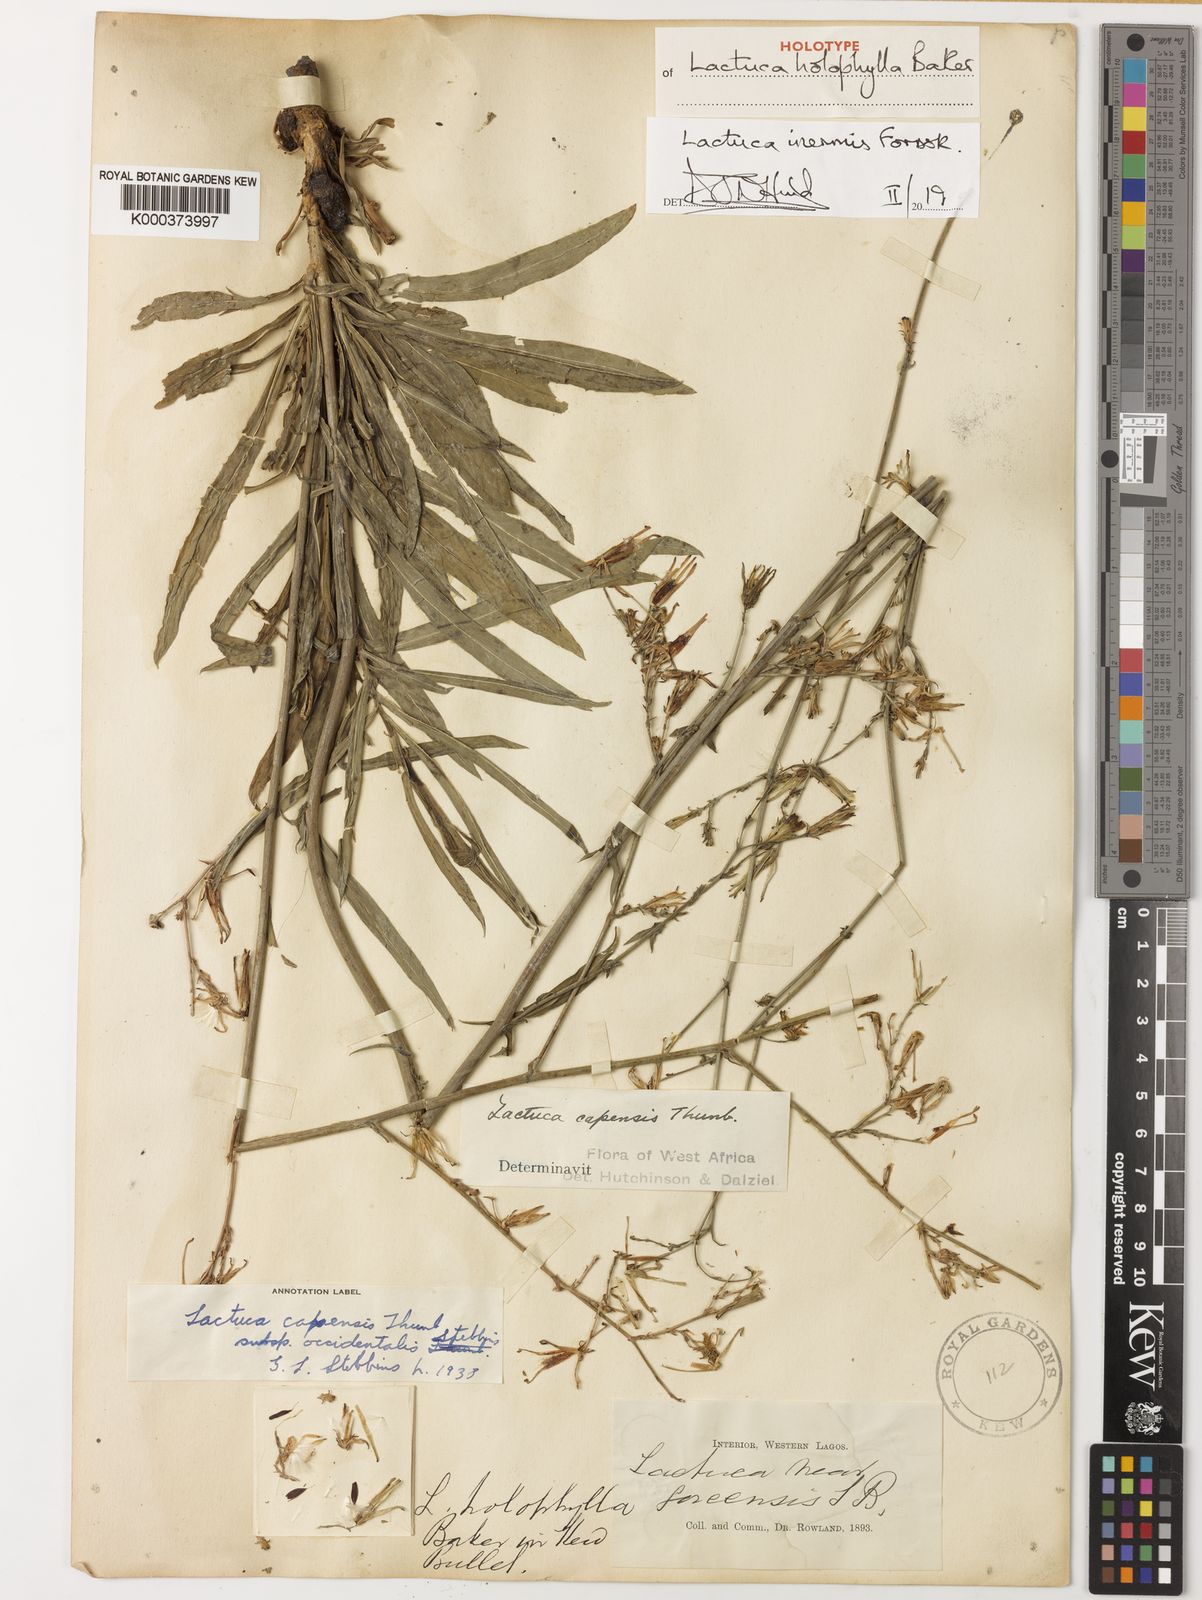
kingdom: Plantae
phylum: Tracheophyta
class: Magnoliopsida
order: Asterales
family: Asteraceae
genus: Lactuca
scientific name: Lactuca inermis
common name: Wild lettuce
